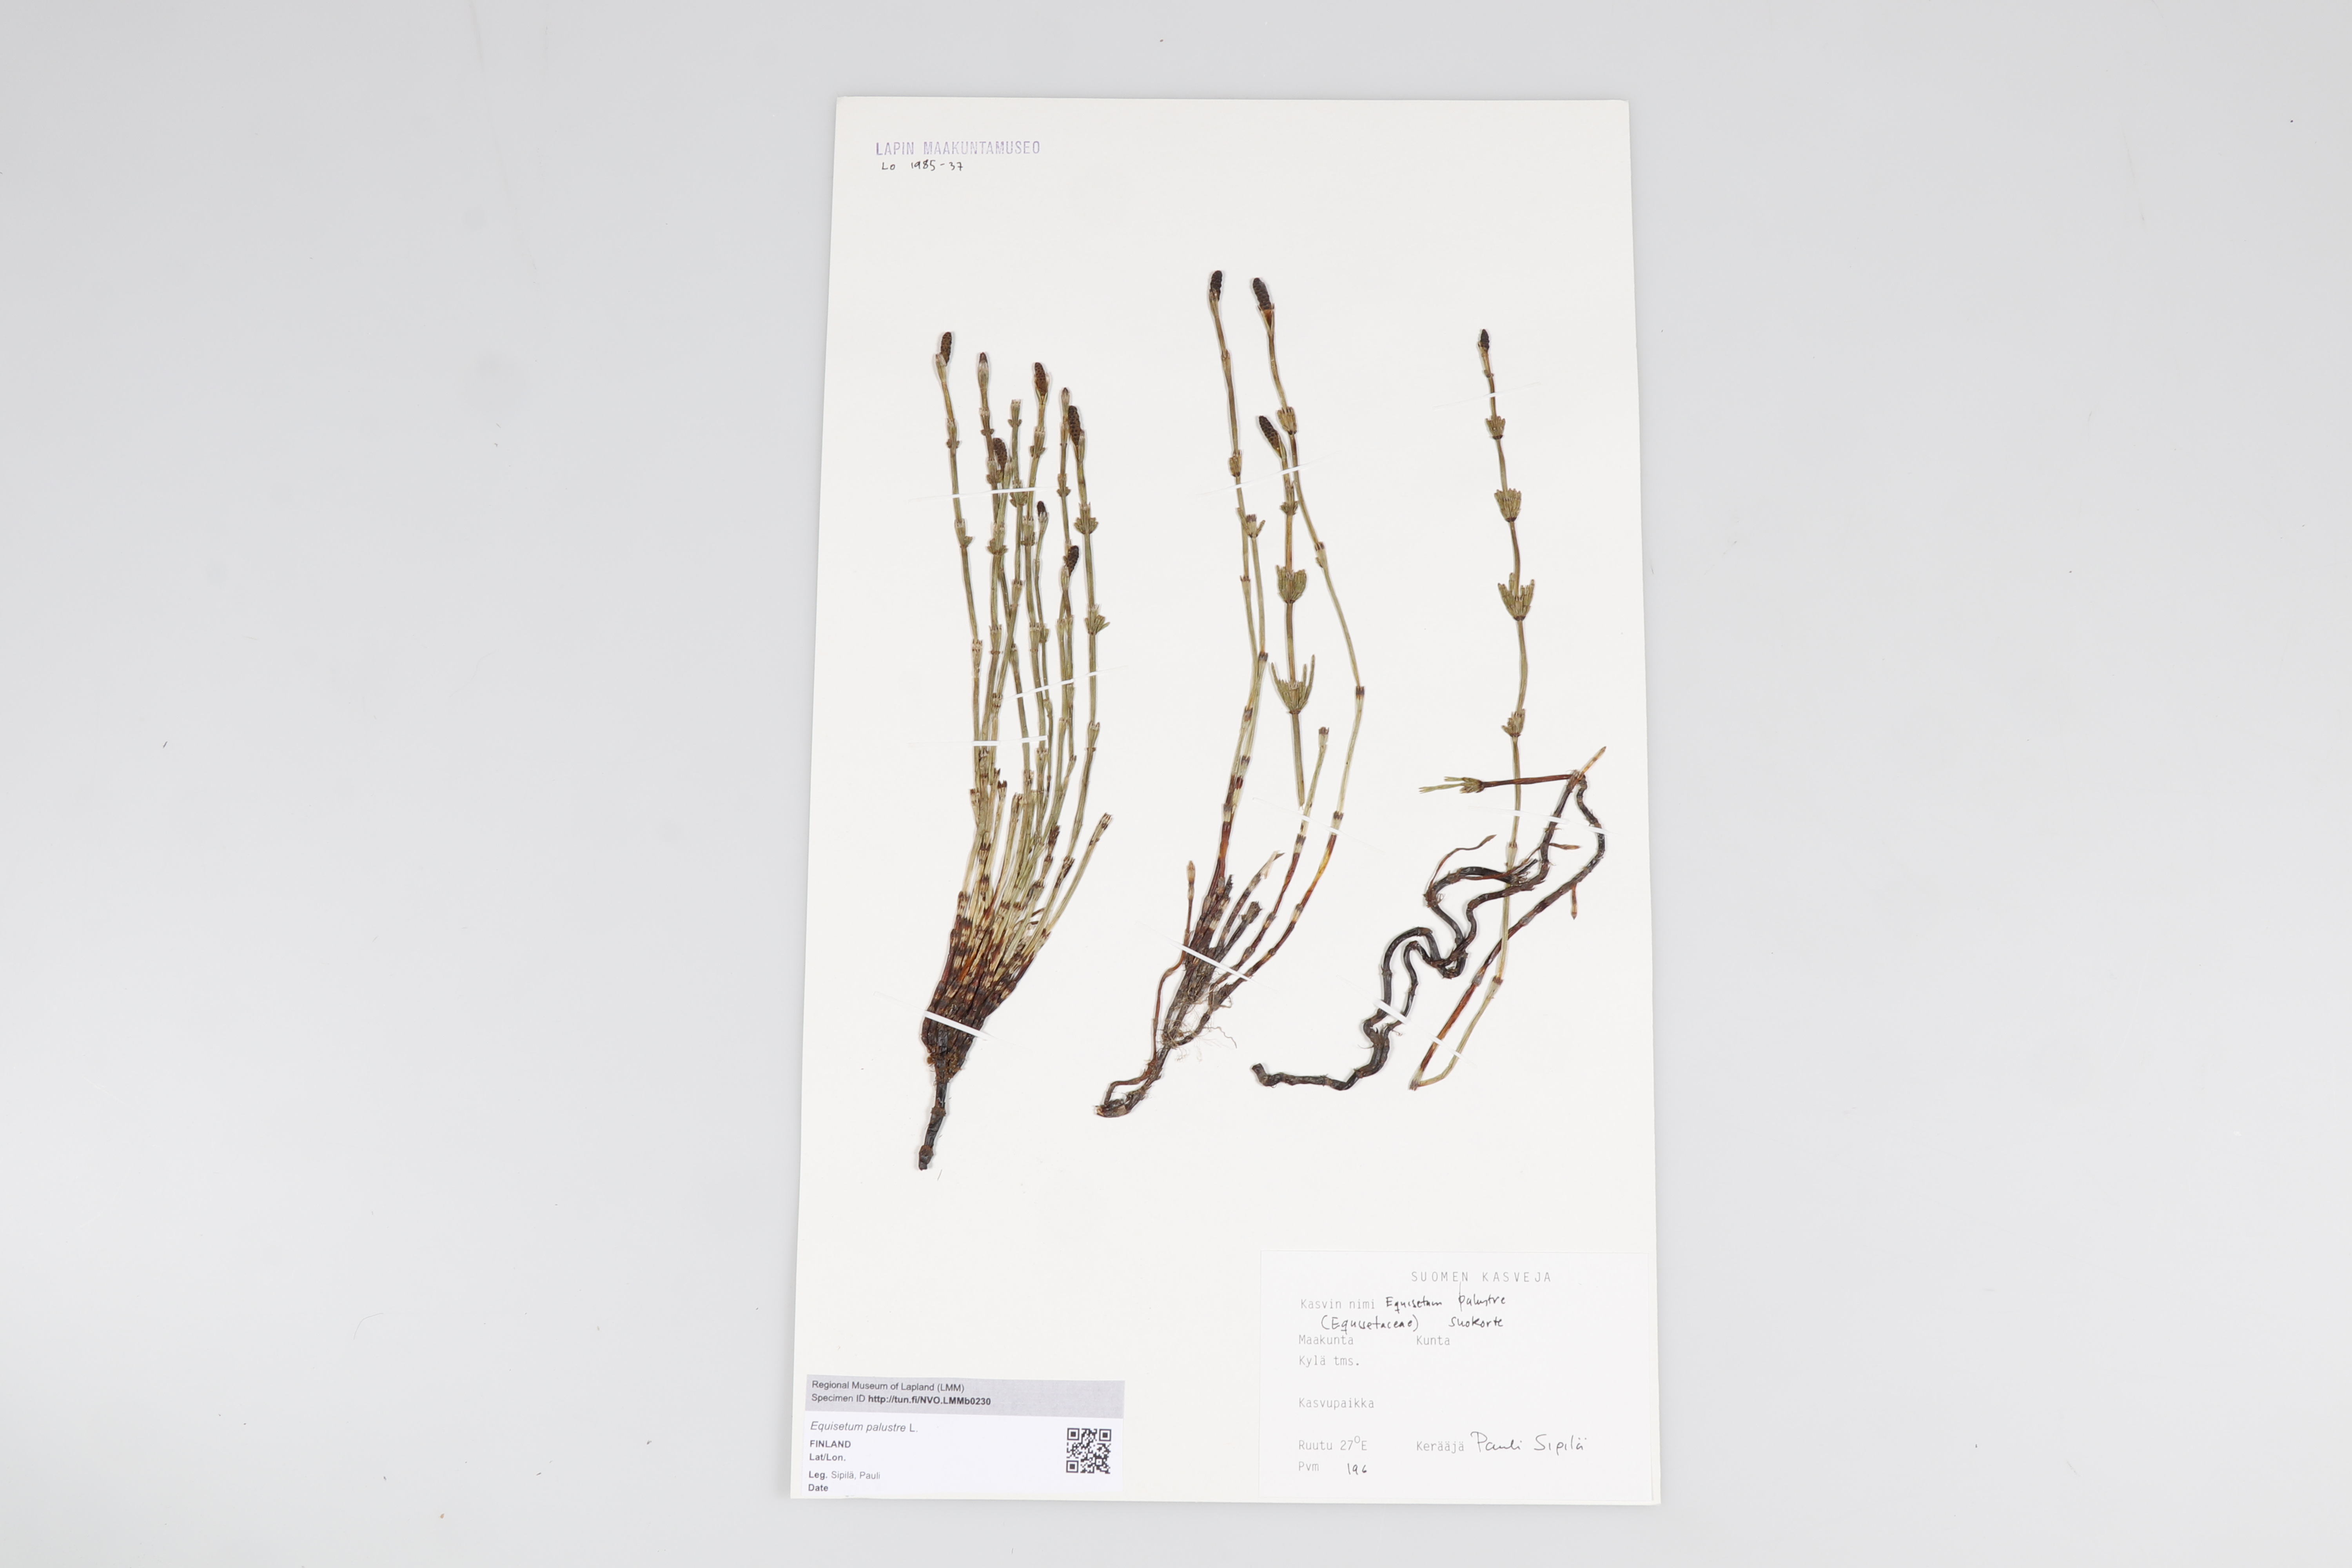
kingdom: Plantae
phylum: Tracheophyta
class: Polypodiopsida
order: Equisetales
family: Equisetaceae
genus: Equisetum
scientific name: Equisetum palustre
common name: Marsh horsetail
